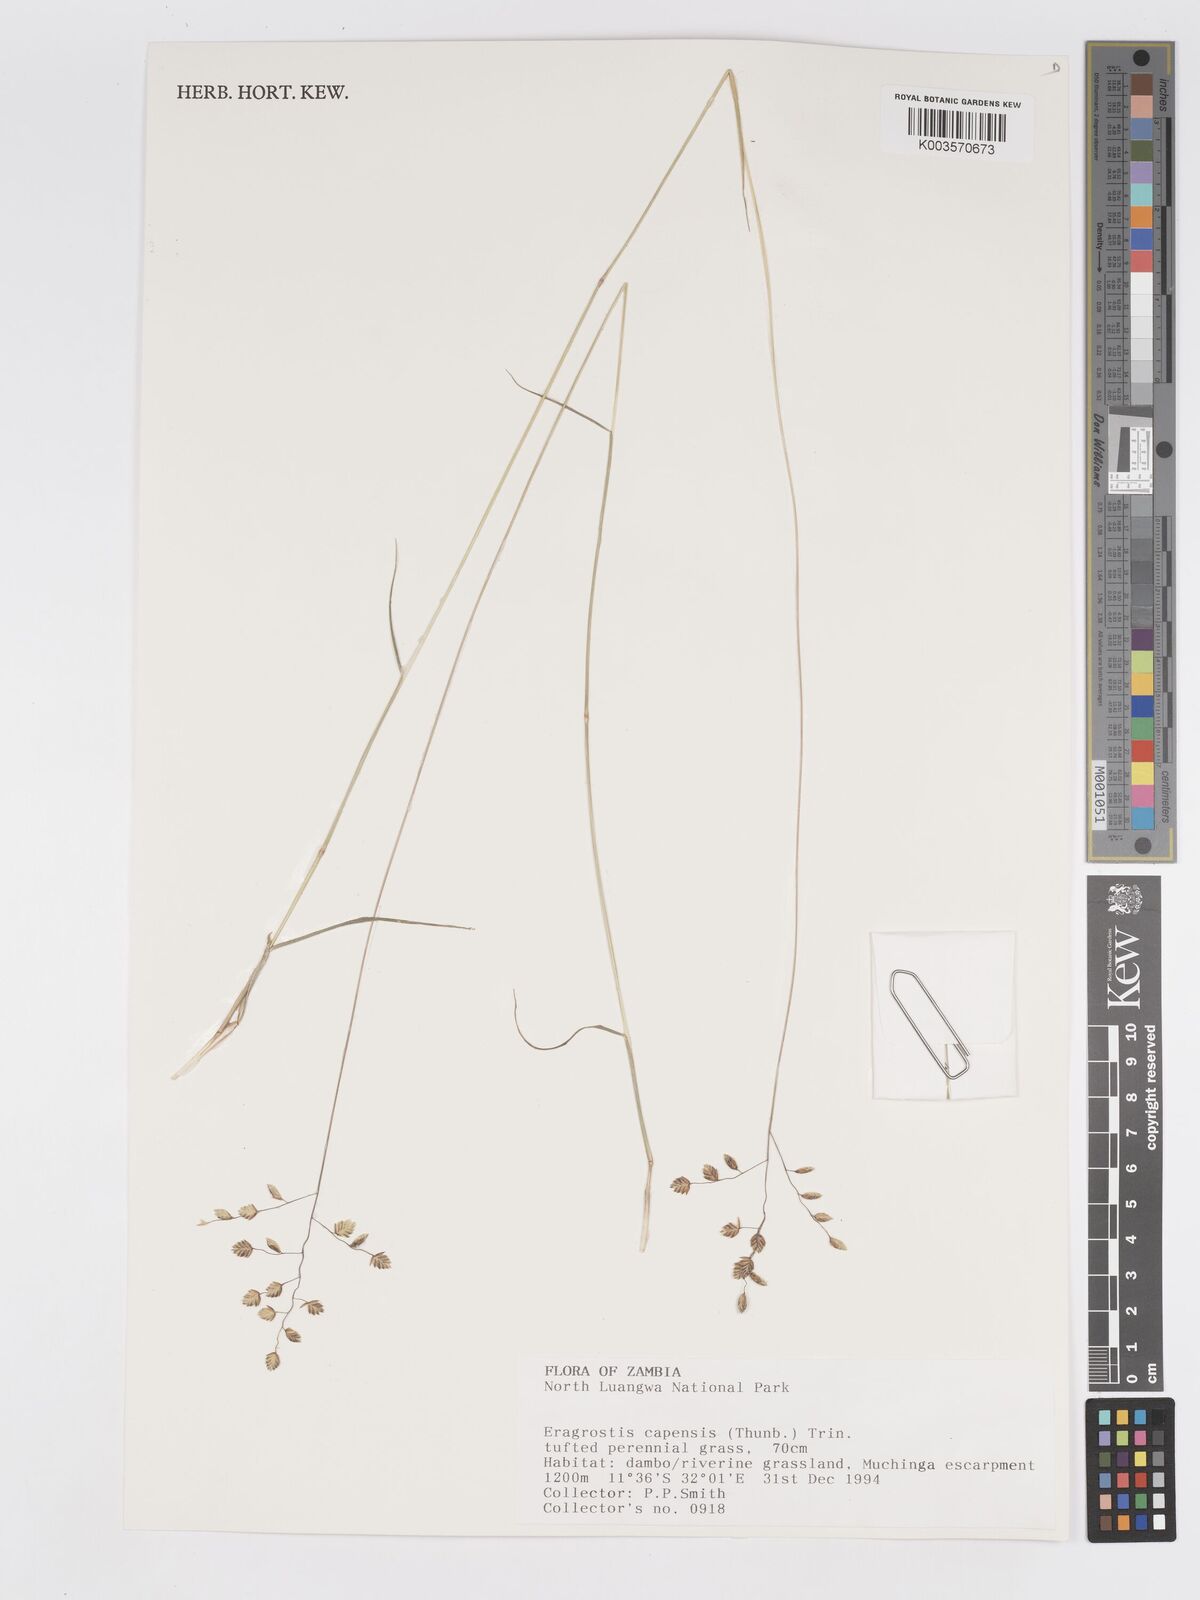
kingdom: Plantae
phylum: Tracheophyta
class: Liliopsida
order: Poales
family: Poaceae
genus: Eragrostis
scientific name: Eragrostis capensis
